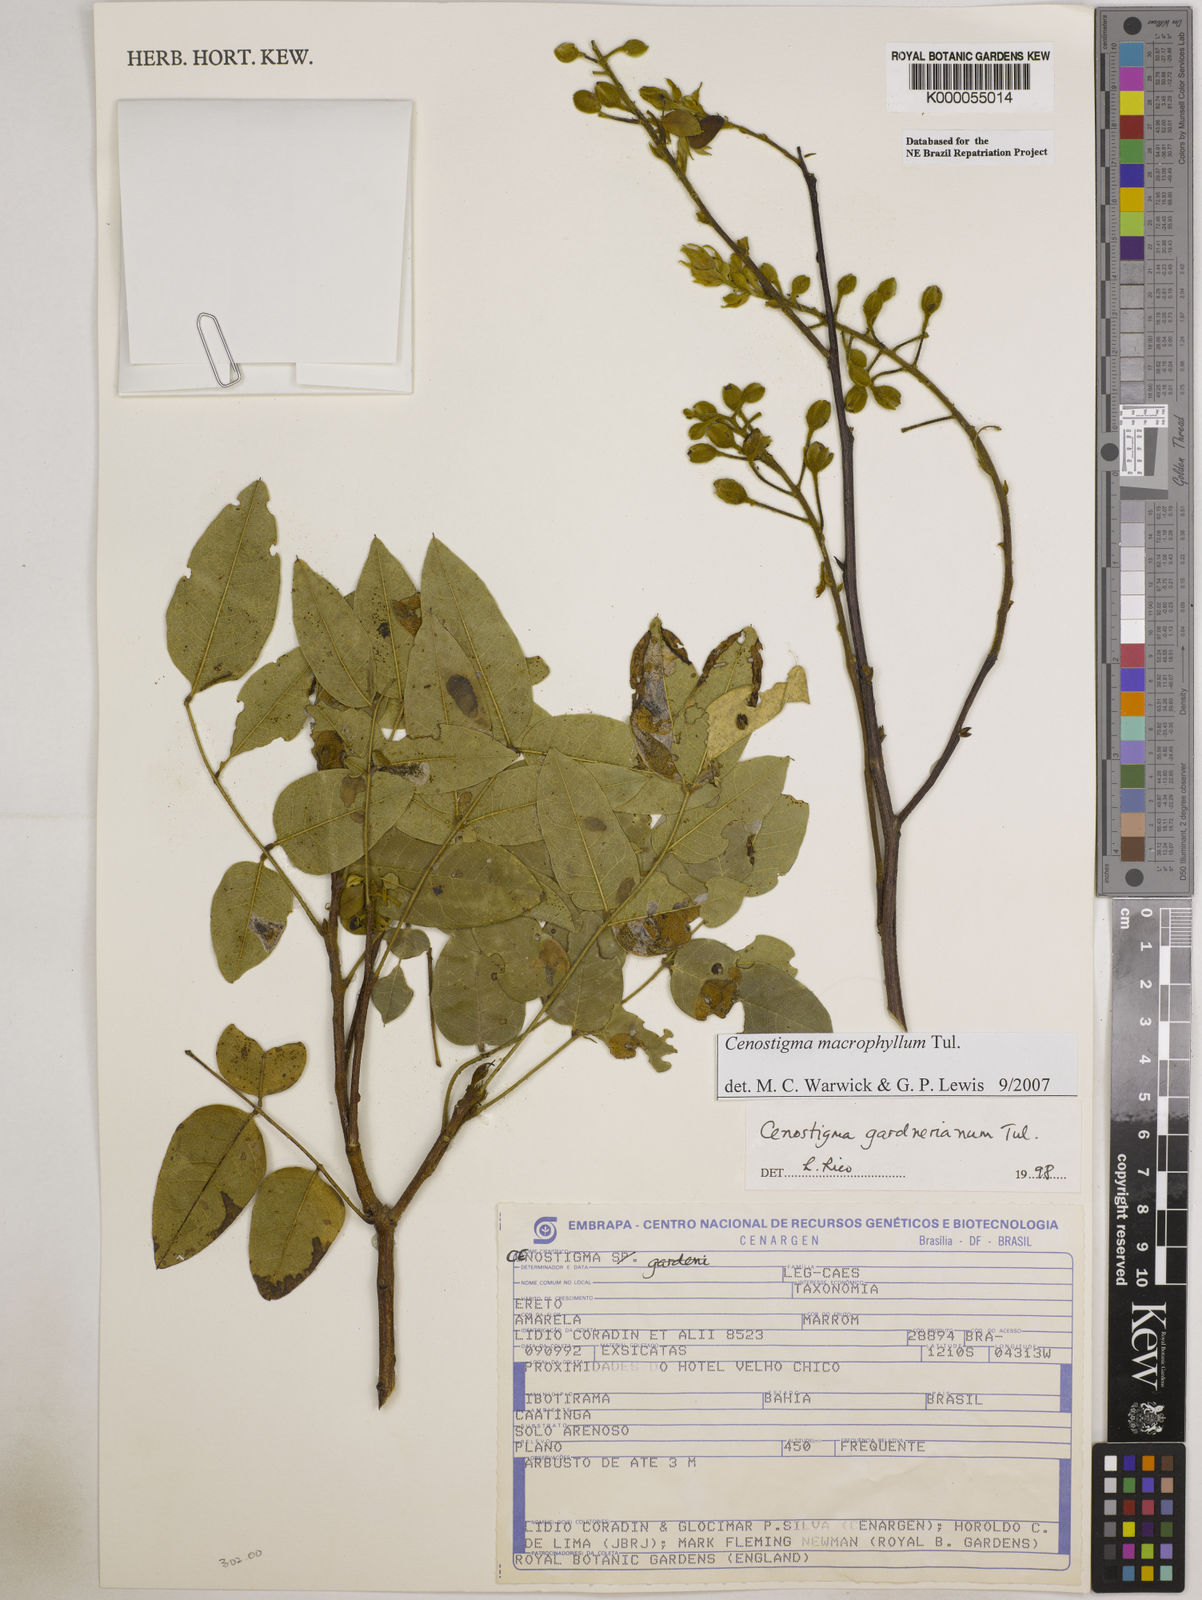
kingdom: Plantae
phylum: Tracheophyta
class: Magnoliopsida
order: Fabales
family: Fabaceae
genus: Cenostigma
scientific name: Cenostigma macrophyllum
